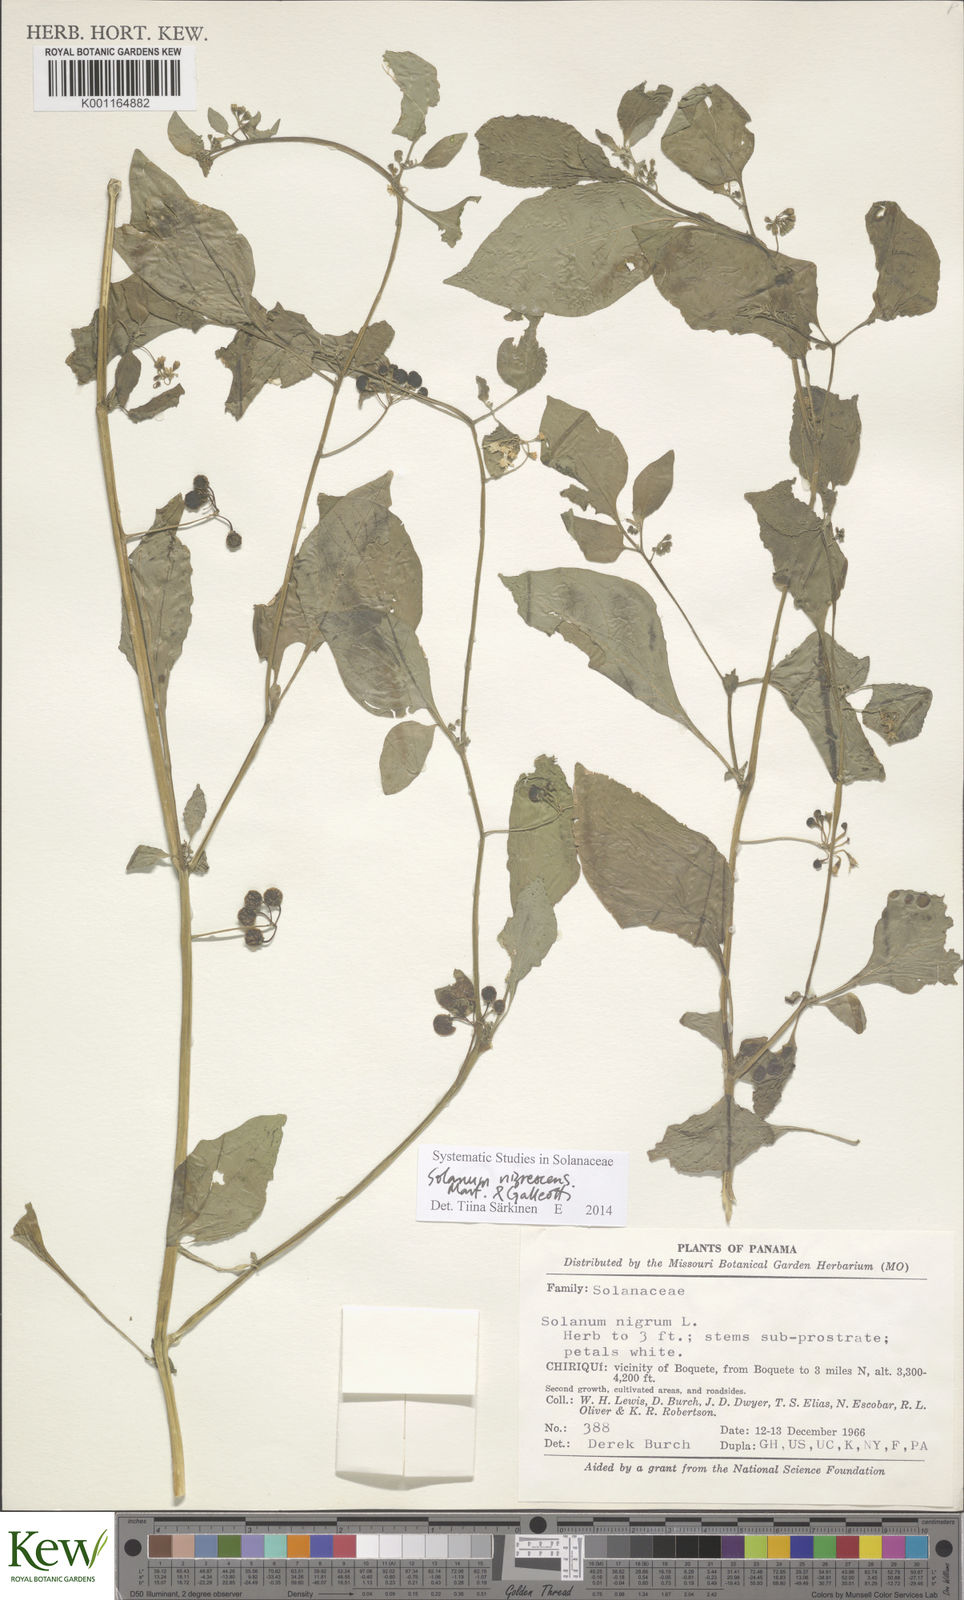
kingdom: Plantae
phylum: Tracheophyta
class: Magnoliopsida
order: Solanales
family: Solanaceae
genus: Solanum
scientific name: Solanum americanum
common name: American black nightshade
